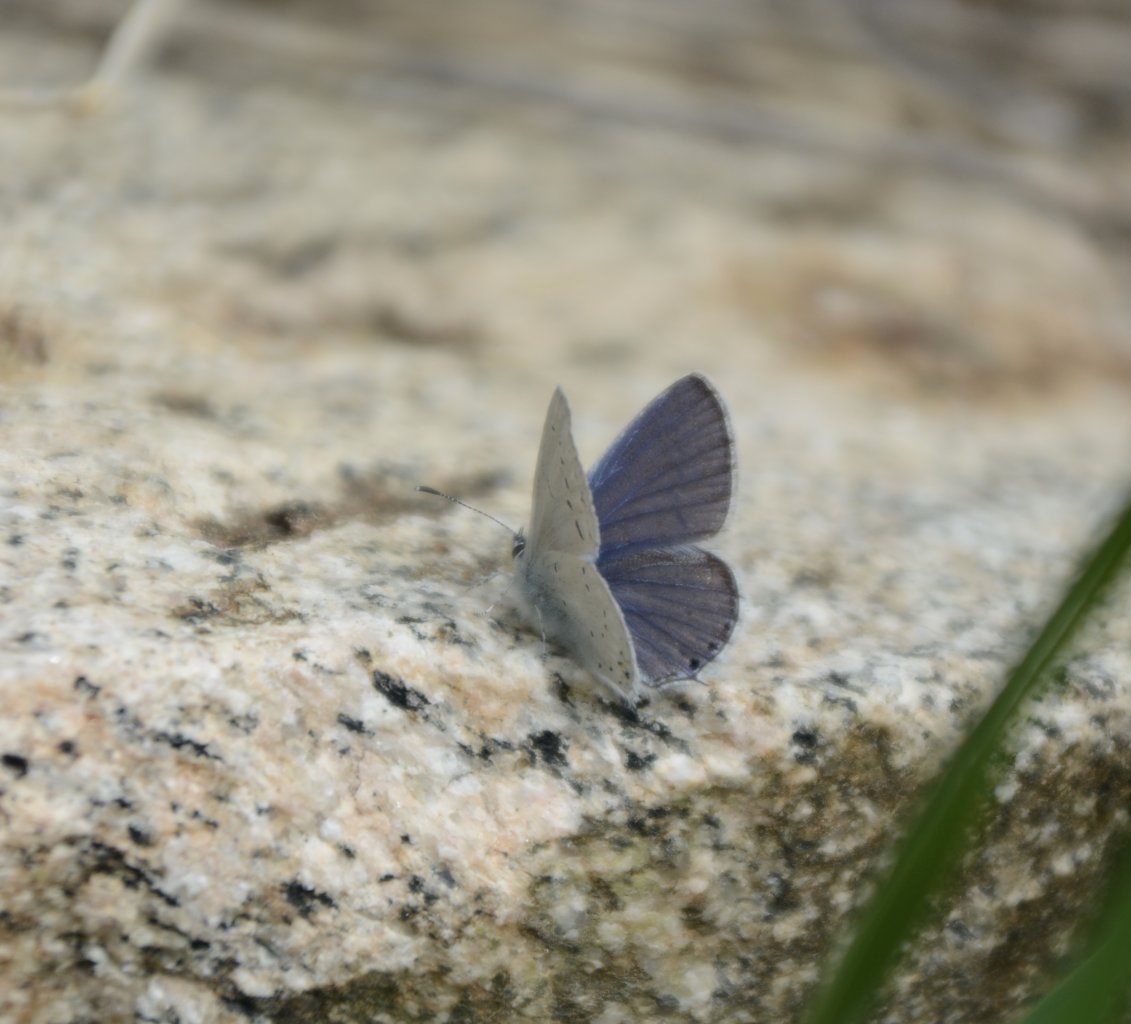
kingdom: Animalia
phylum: Arthropoda
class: Insecta
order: Lepidoptera
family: Lycaenidae
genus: Elkalyce
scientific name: Elkalyce amyntula
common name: Western Tailed-Blue
